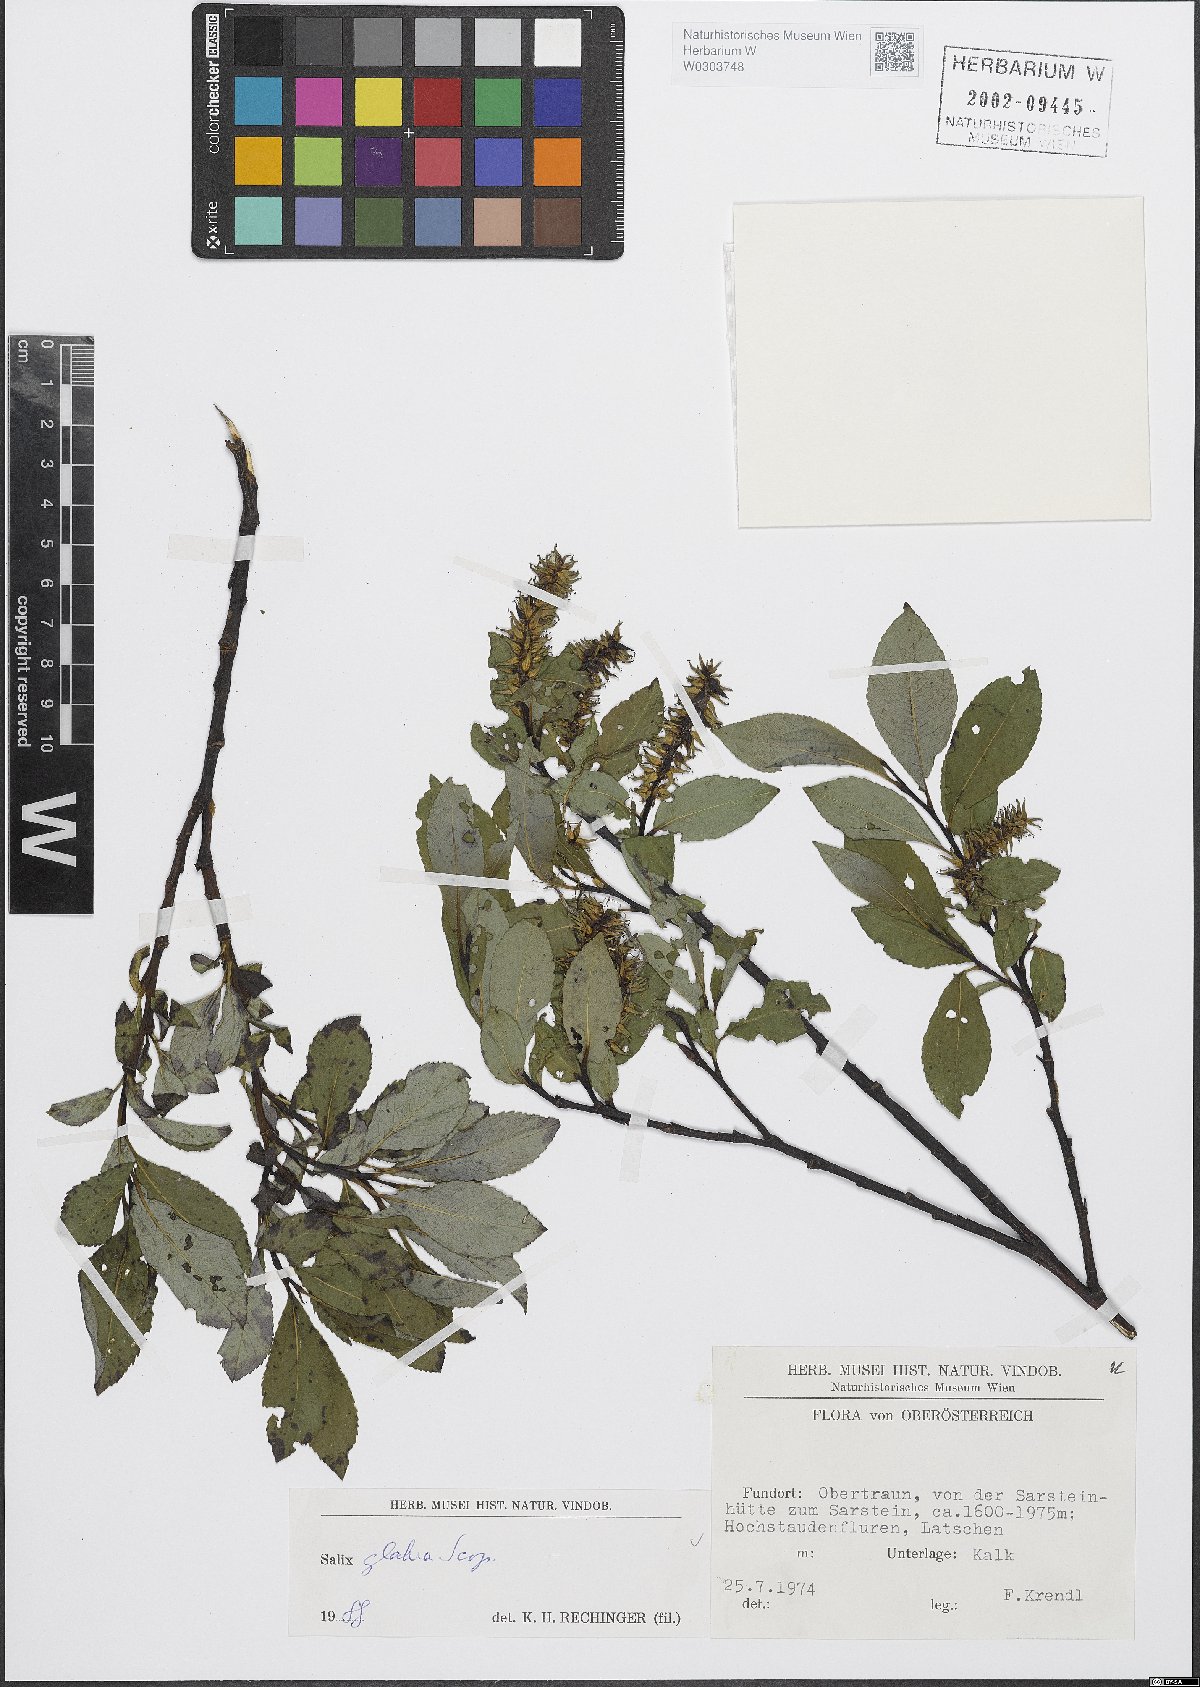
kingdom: Plantae
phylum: Tracheophyta
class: Magnoliopsida
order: Malpighiales
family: Salicaceae
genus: Salix
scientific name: Salix glabra
